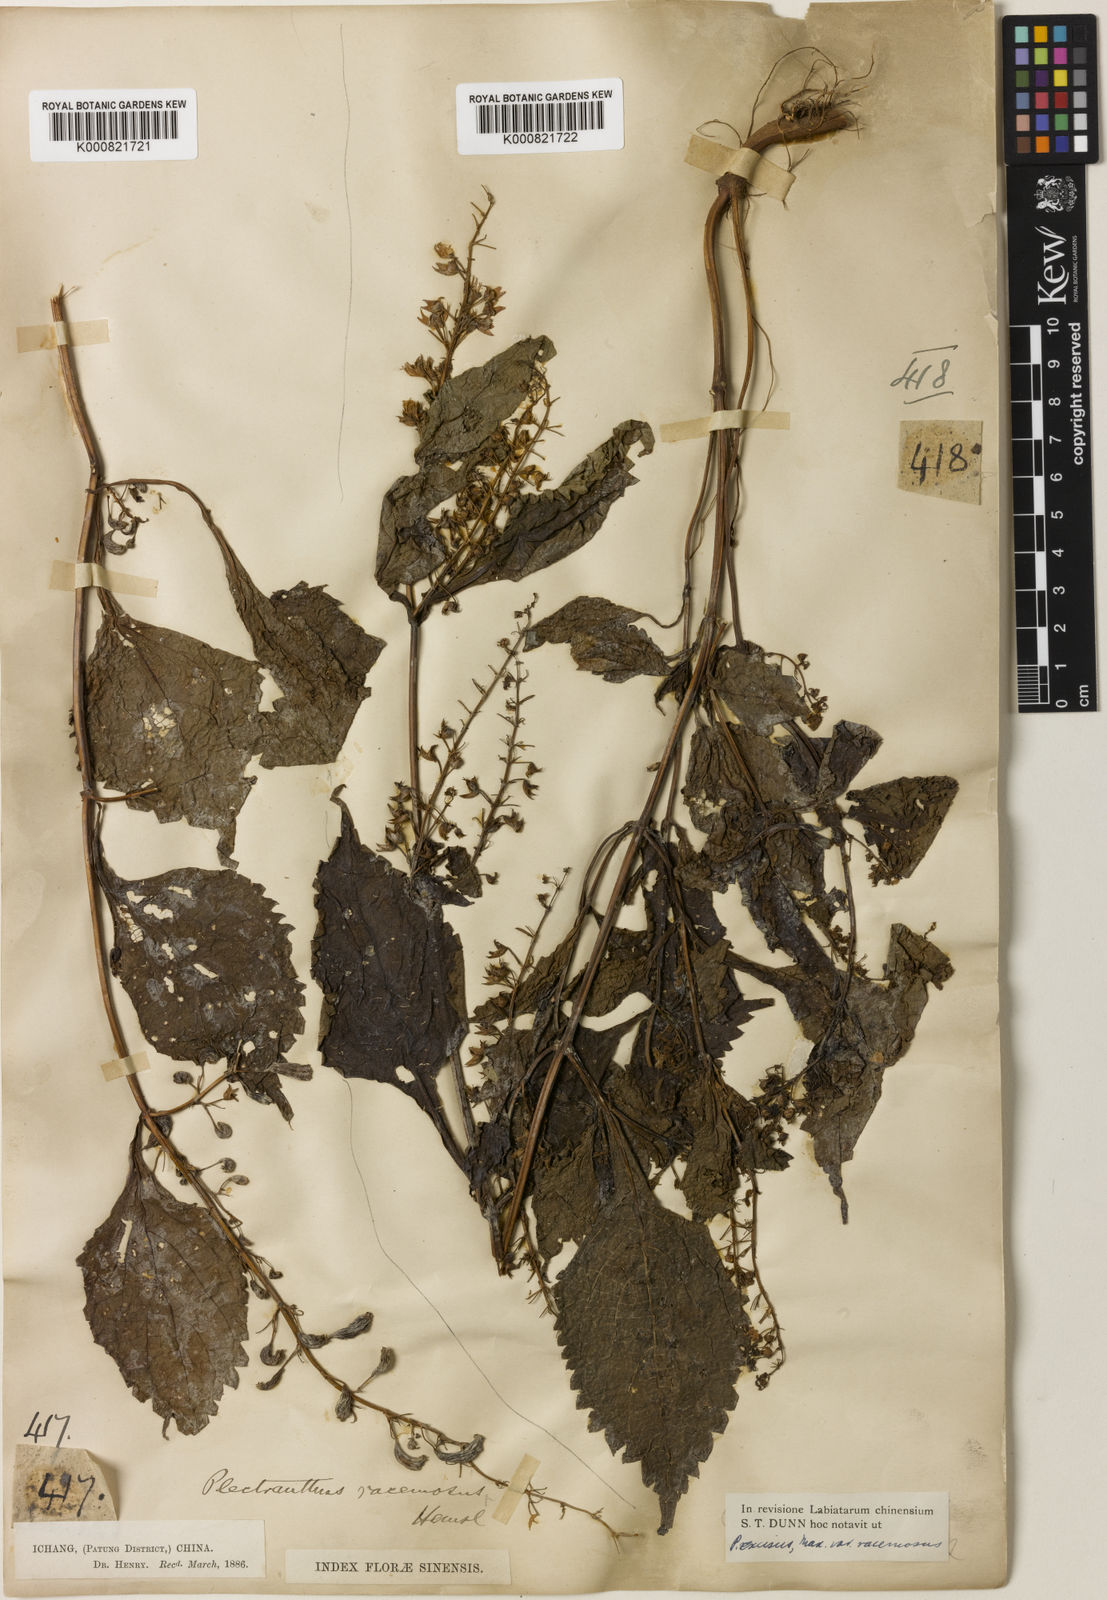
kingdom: Plantae
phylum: Tracheophyta
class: Magnoliopsida
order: Lamiales
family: Lamiaceae
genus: Isodon
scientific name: Isodon racemosus
